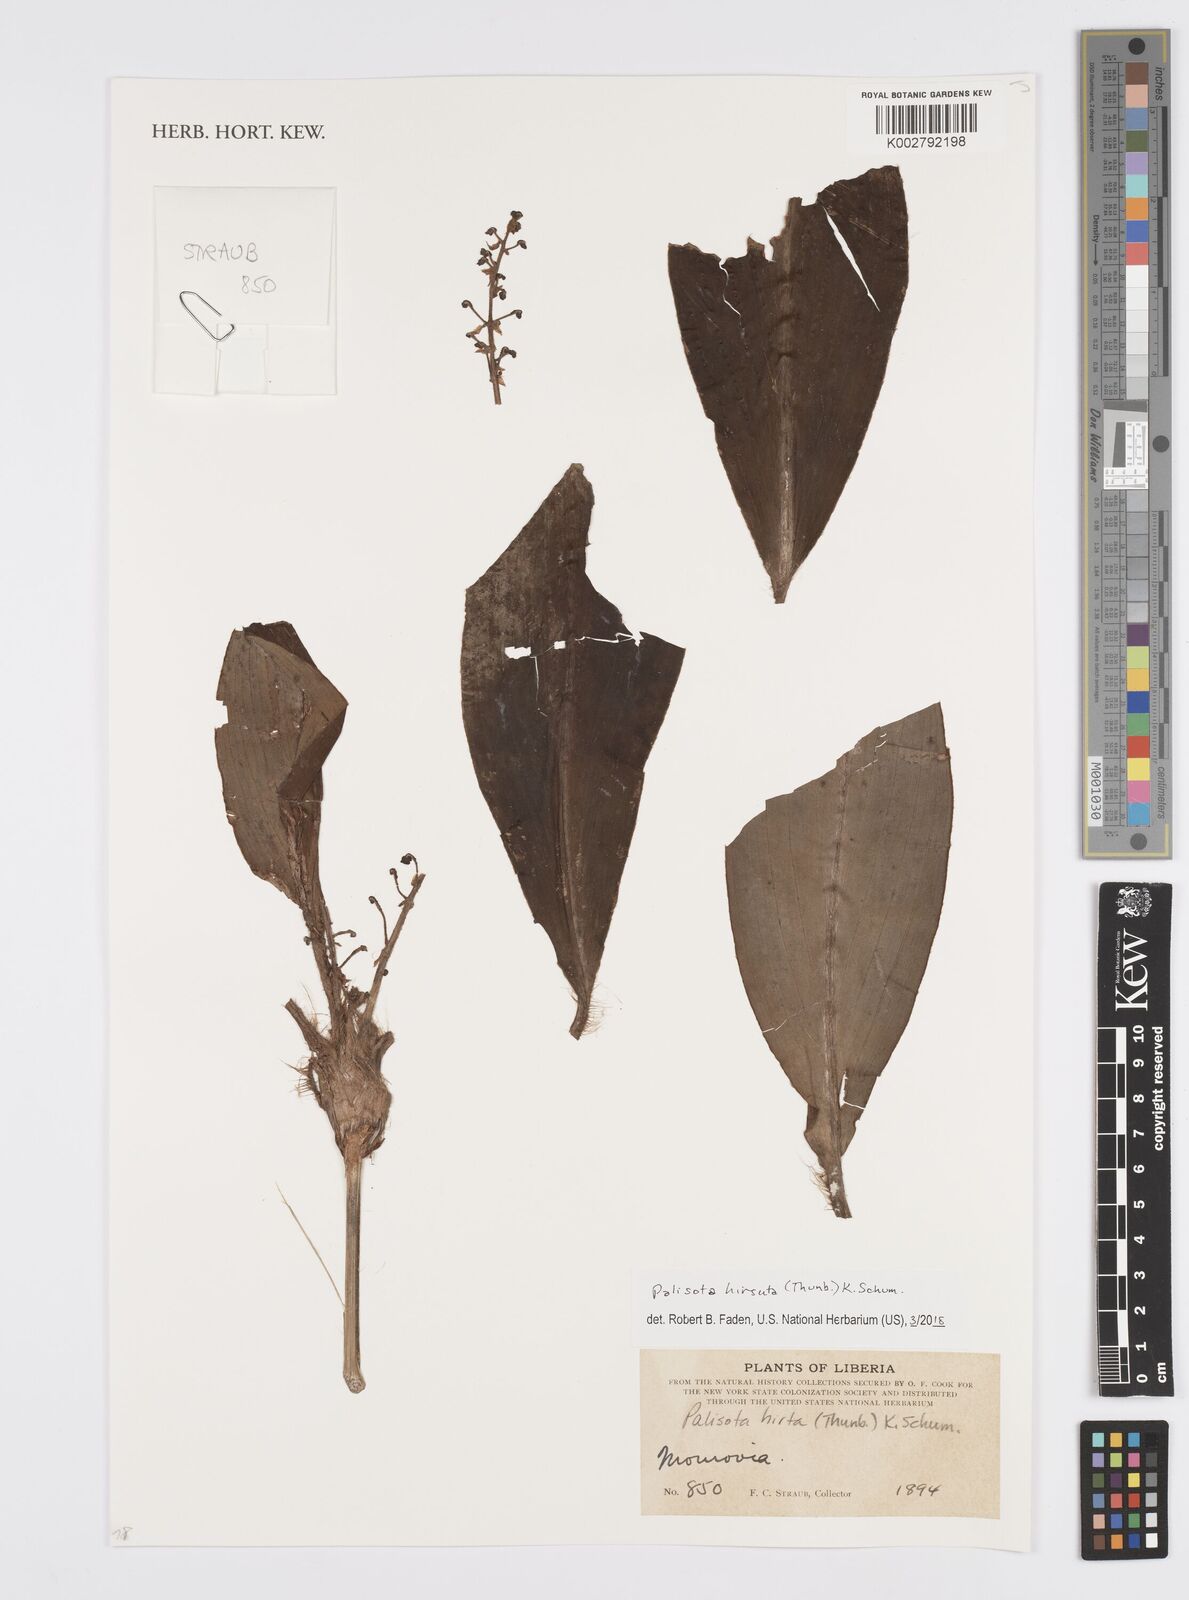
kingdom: Plantae
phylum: Tracheophyta
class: Liliopsida
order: Commelinales
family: Commelinaceae
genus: Palisota
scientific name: Palisota hirsuta
